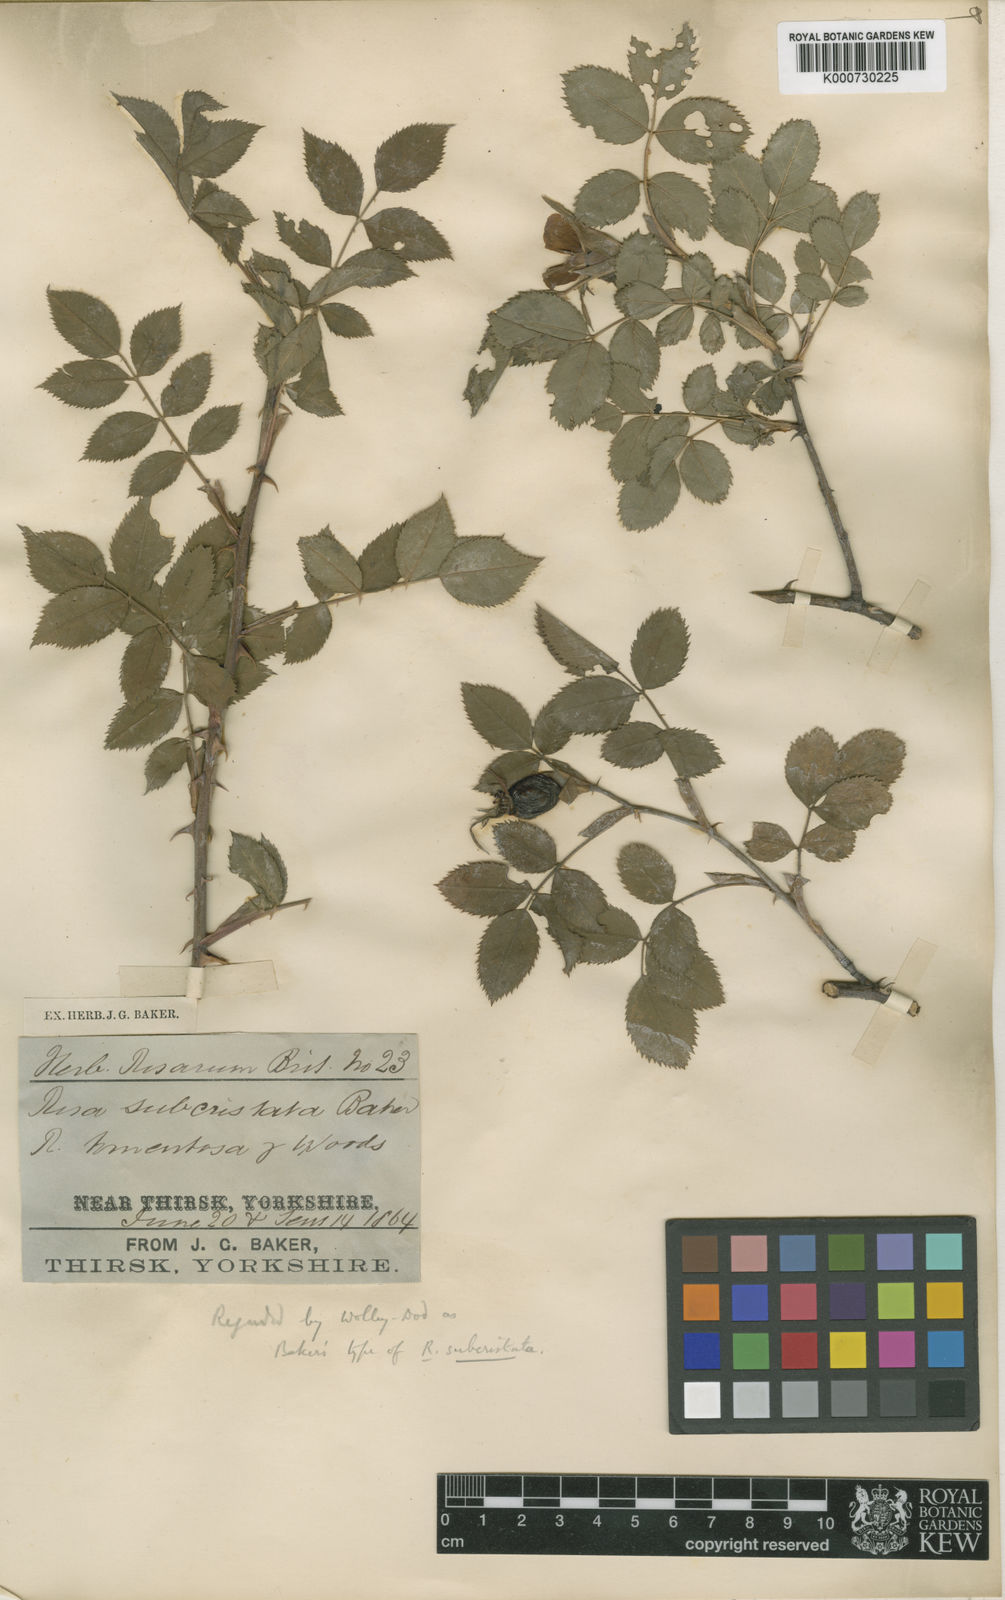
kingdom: Plantae
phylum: Tracheophyta
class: Magnoliopsida
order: Rosales
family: Rosaceae
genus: Rosa
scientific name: Rosa canina
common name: Dog rose
